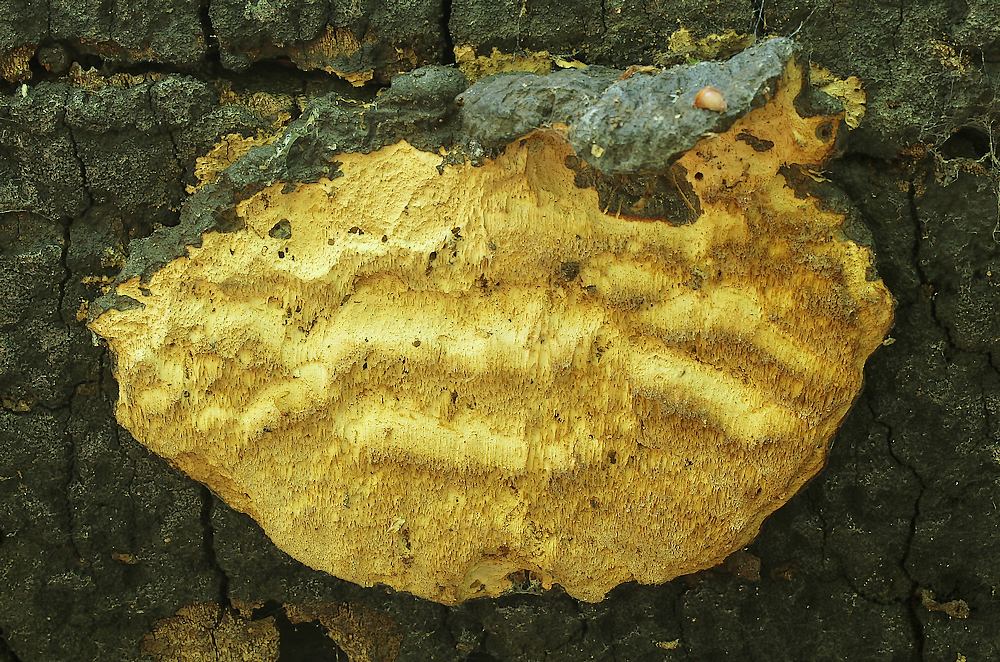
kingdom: Fungi
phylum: Basidiomycota
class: Agaricomycetes
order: Polyporales
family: Ischnodermataceae
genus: Ischnoderma
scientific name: Ischnoderma resinosum
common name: løv-tjæreporesvamp
